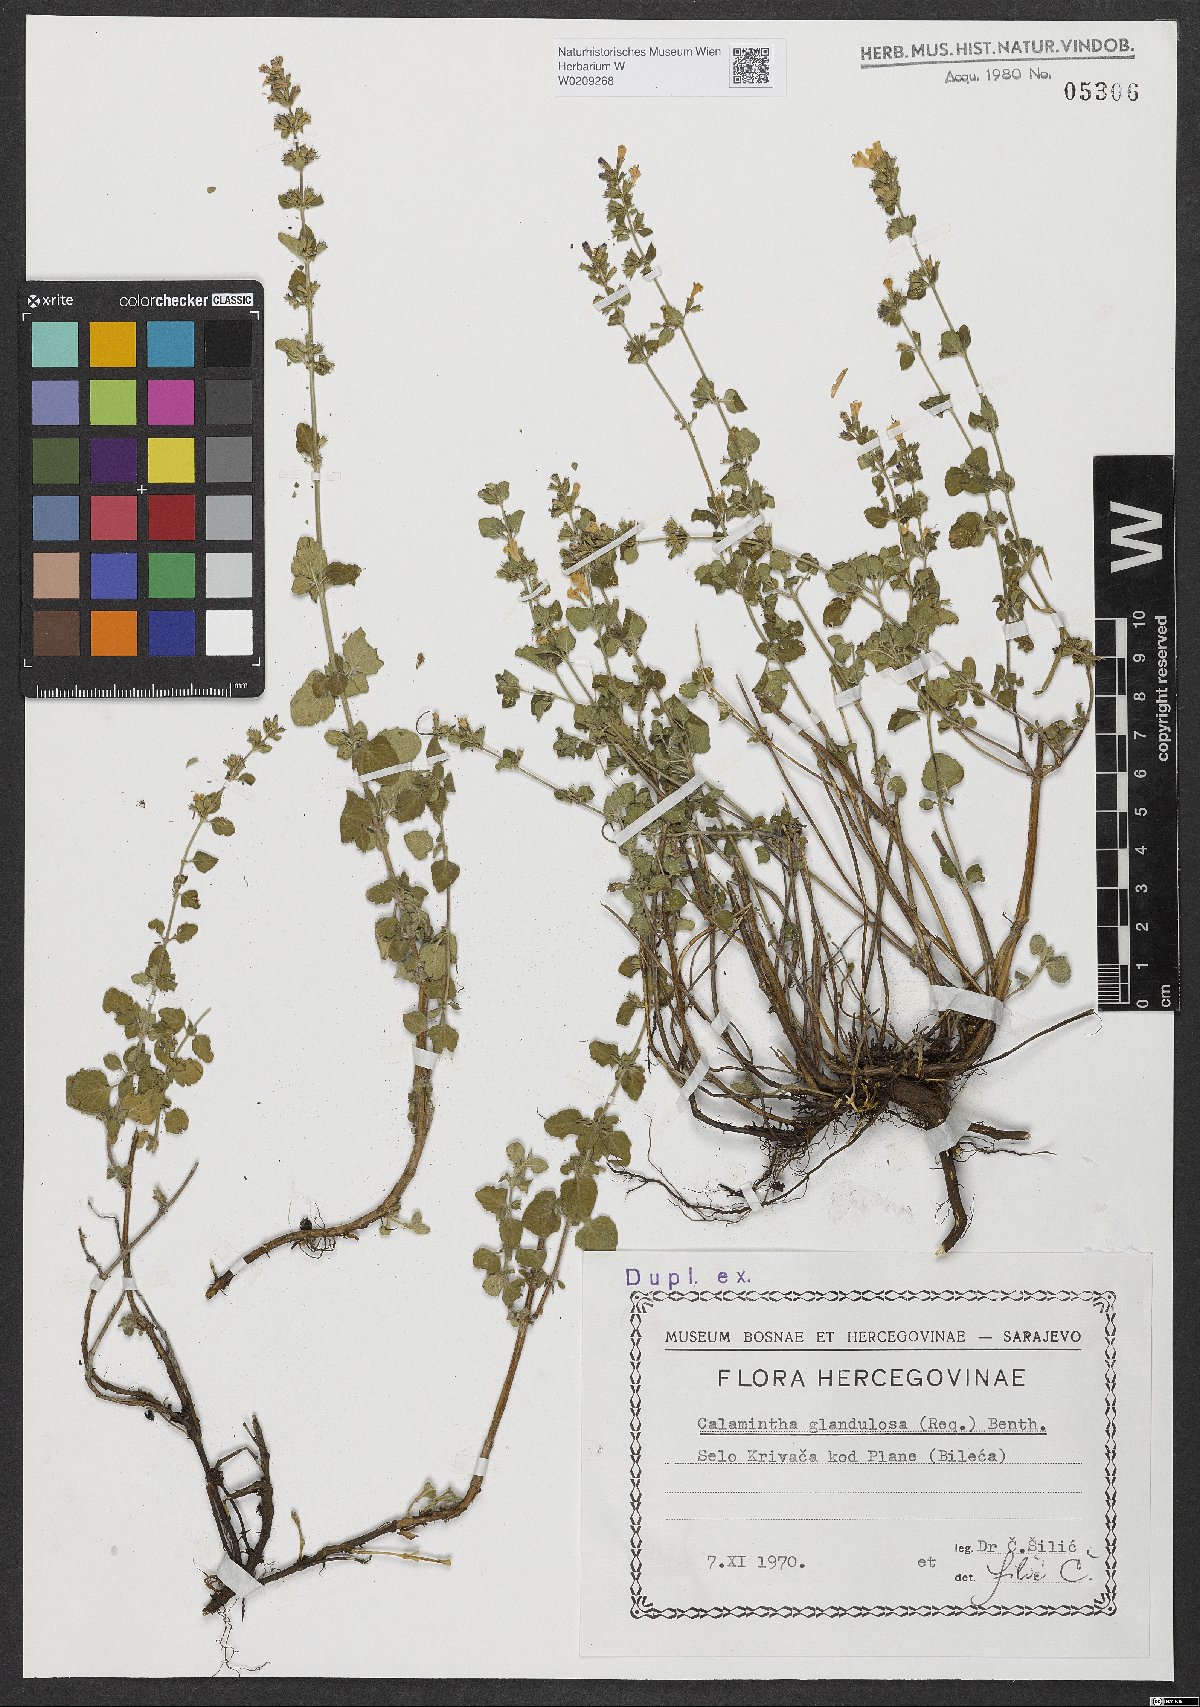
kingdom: Plantae
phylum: Tracheophyta
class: Magnoliopsida
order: Lamiales
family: Lamiaceae
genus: Clinopodium
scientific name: Clinopodium nepeta
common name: Lesser calamint
